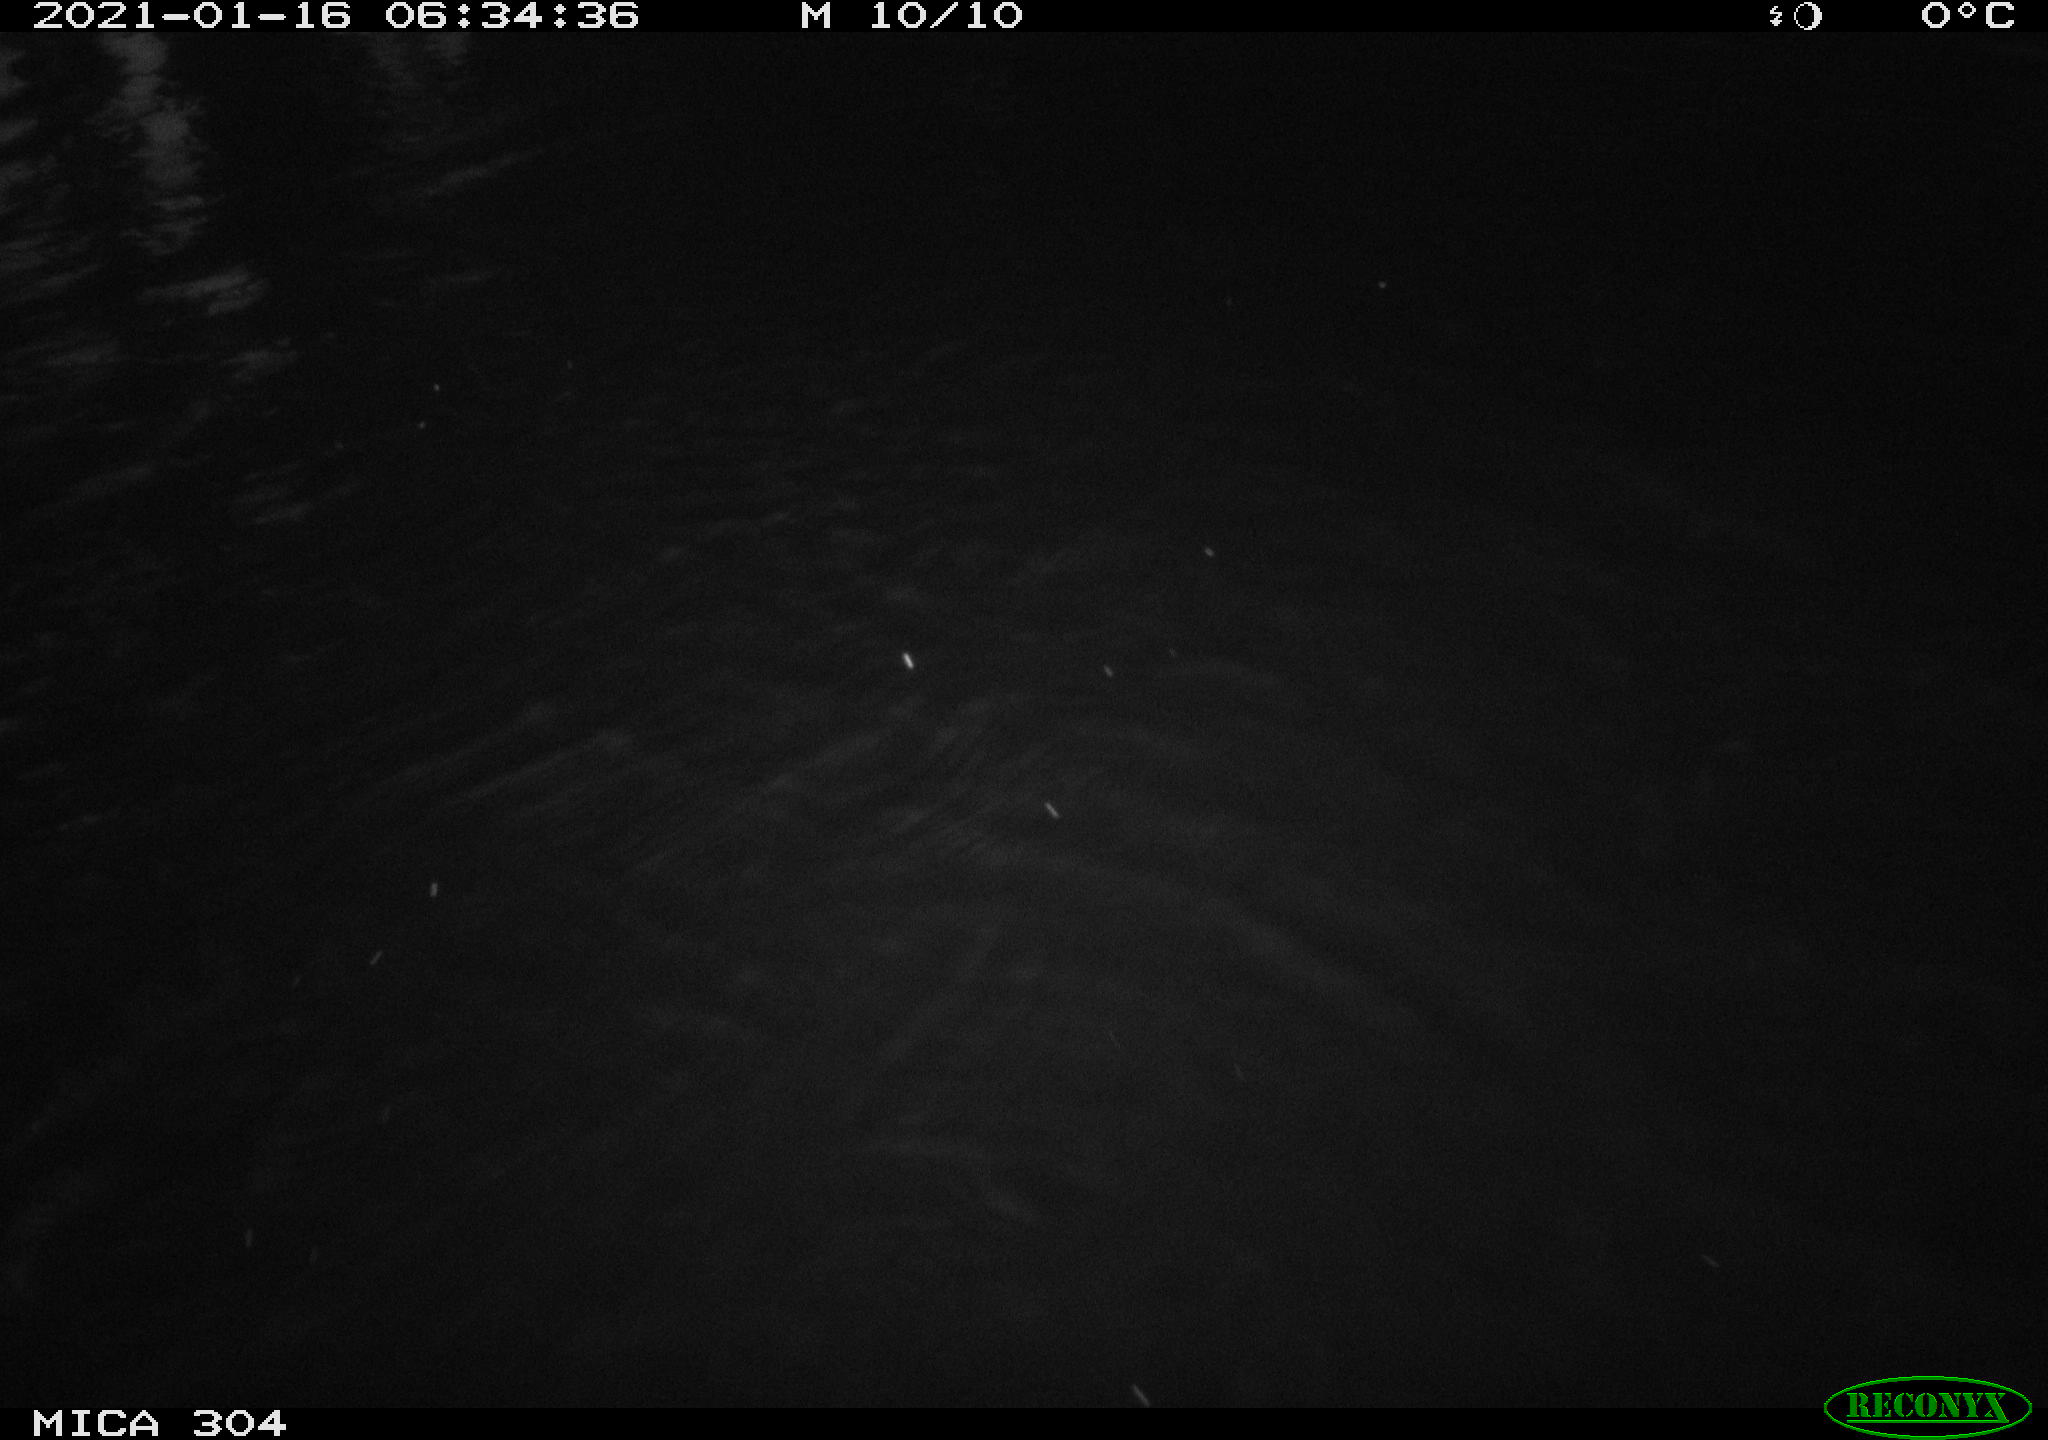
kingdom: Animalia
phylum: Chordata
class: Aves
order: Anseriformes
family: Anatidae
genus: Anas
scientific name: Anas platyrhynchos
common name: Mallard
